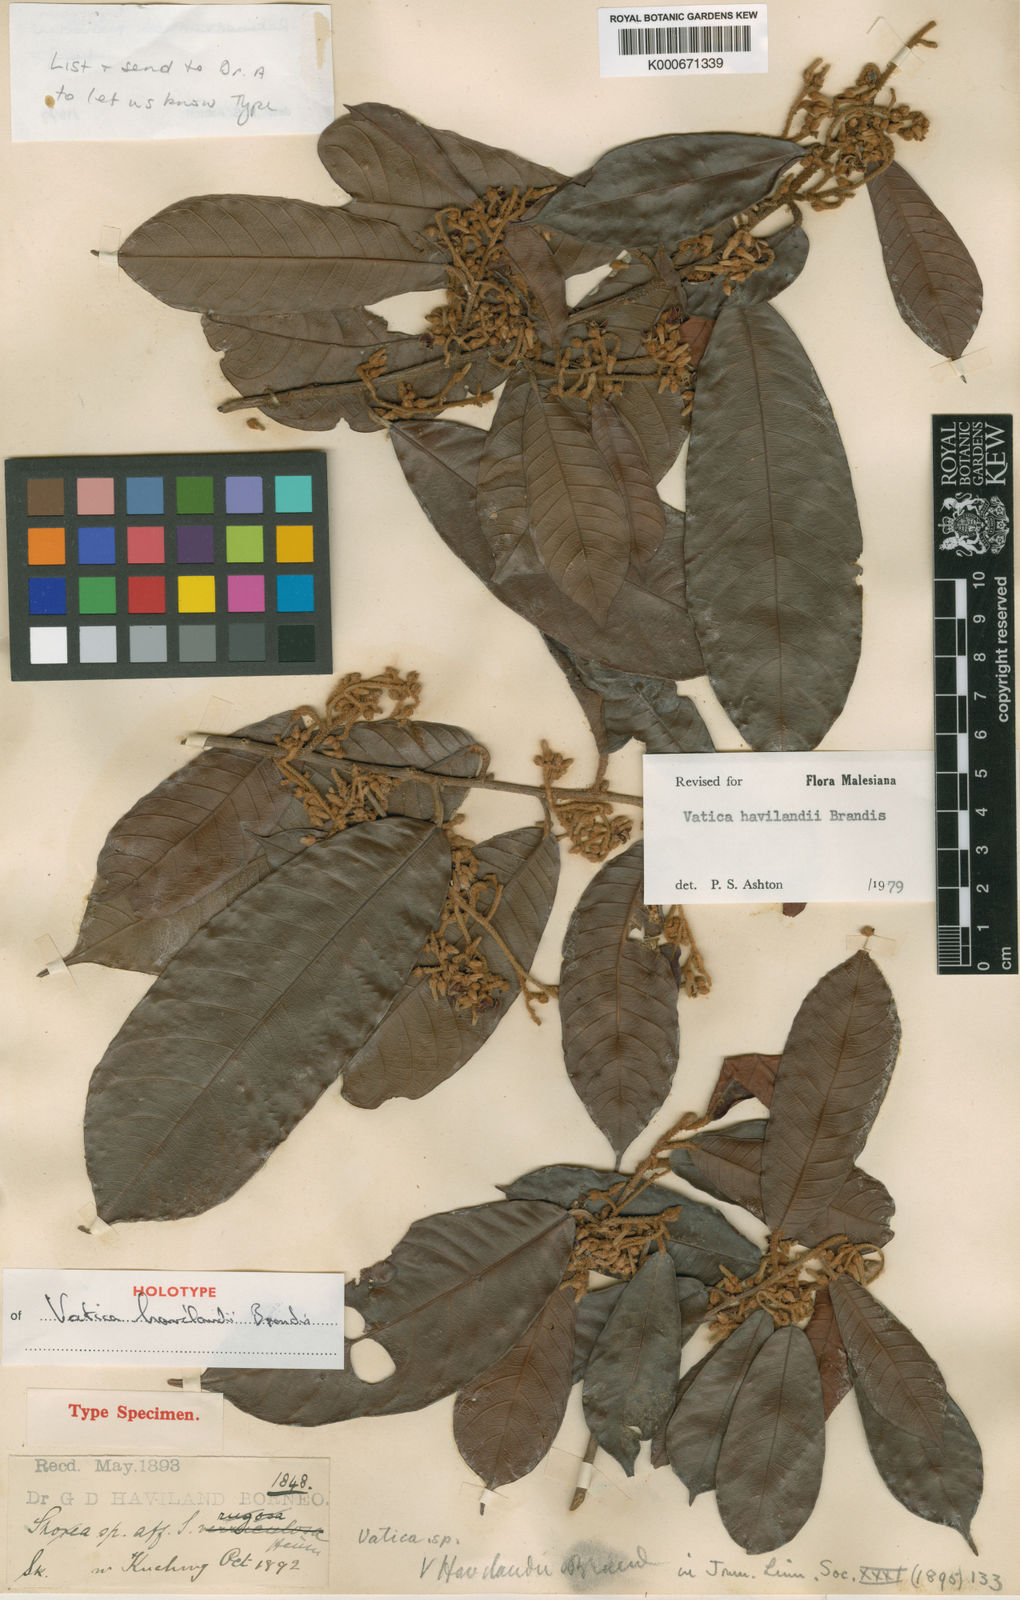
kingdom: Plantae
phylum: Tracheophyta
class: Magnoliopsida
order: Malvales
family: Dipterocarpaceae
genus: Vatica
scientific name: Vatica havilandii
